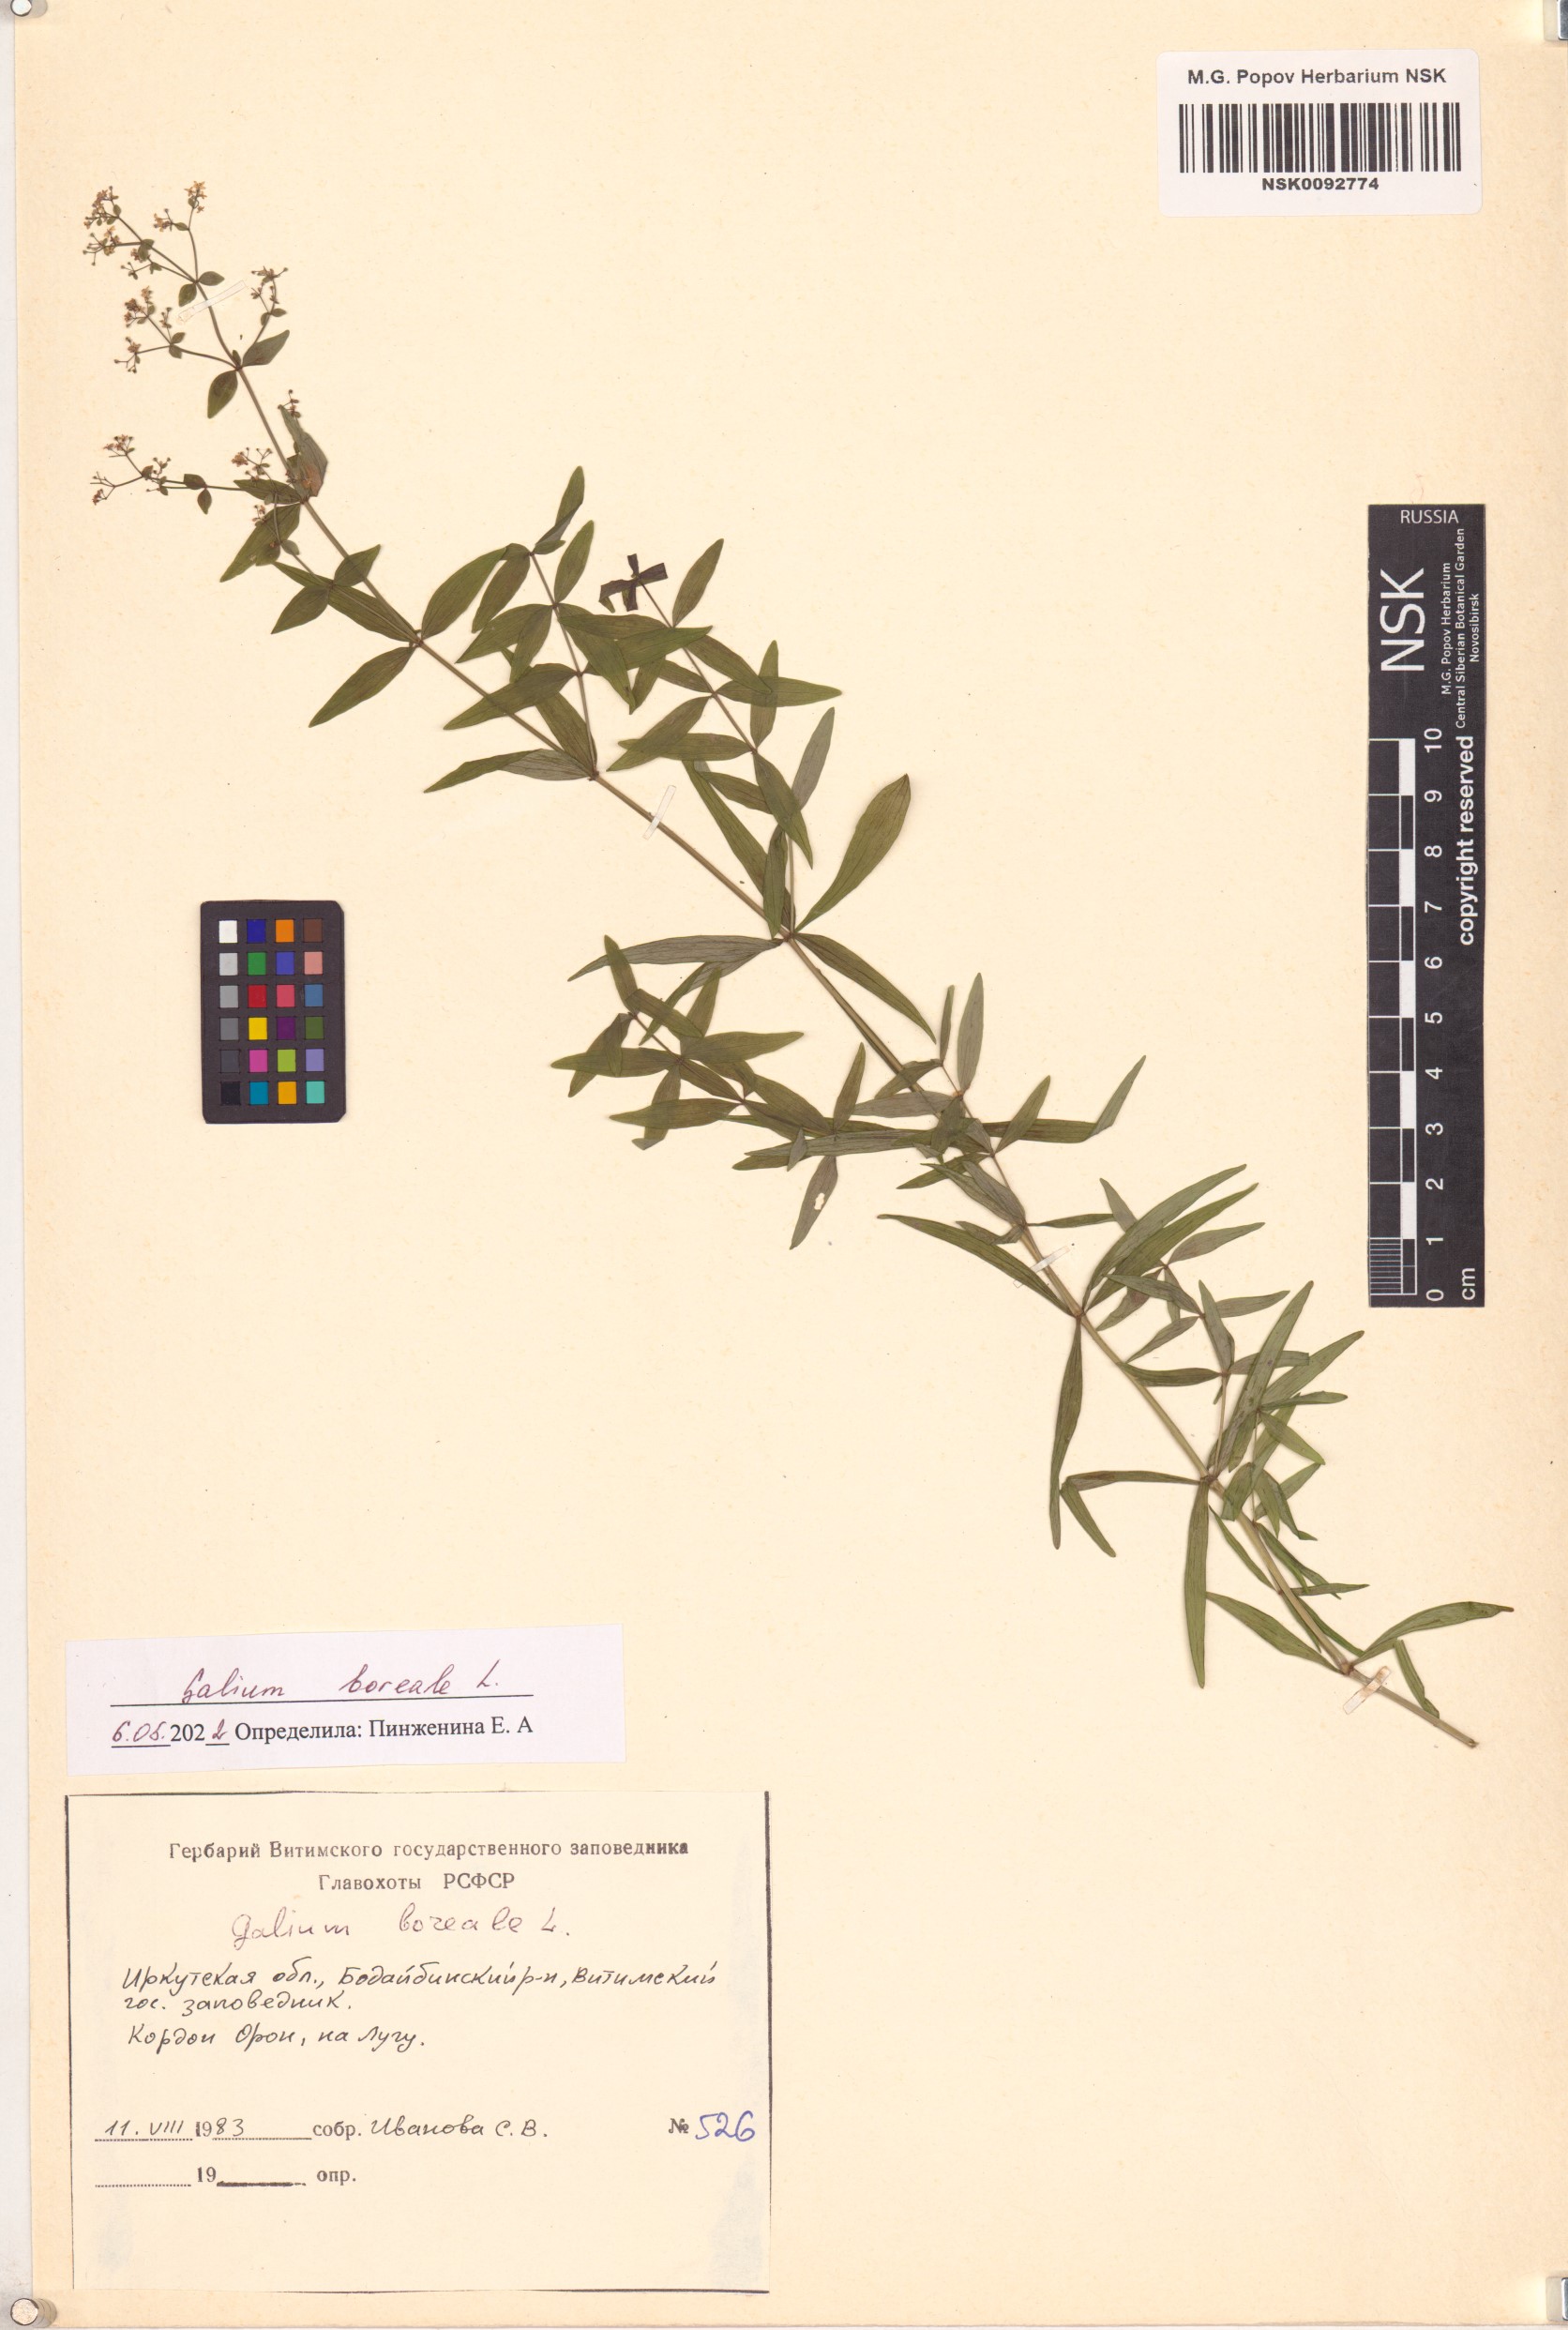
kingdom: Plantae
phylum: Tracheophyta
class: Magnoliopsida
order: Gentianales
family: Rubiaceae
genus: Galium
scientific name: Galium boreale
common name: Northern bedstraw
